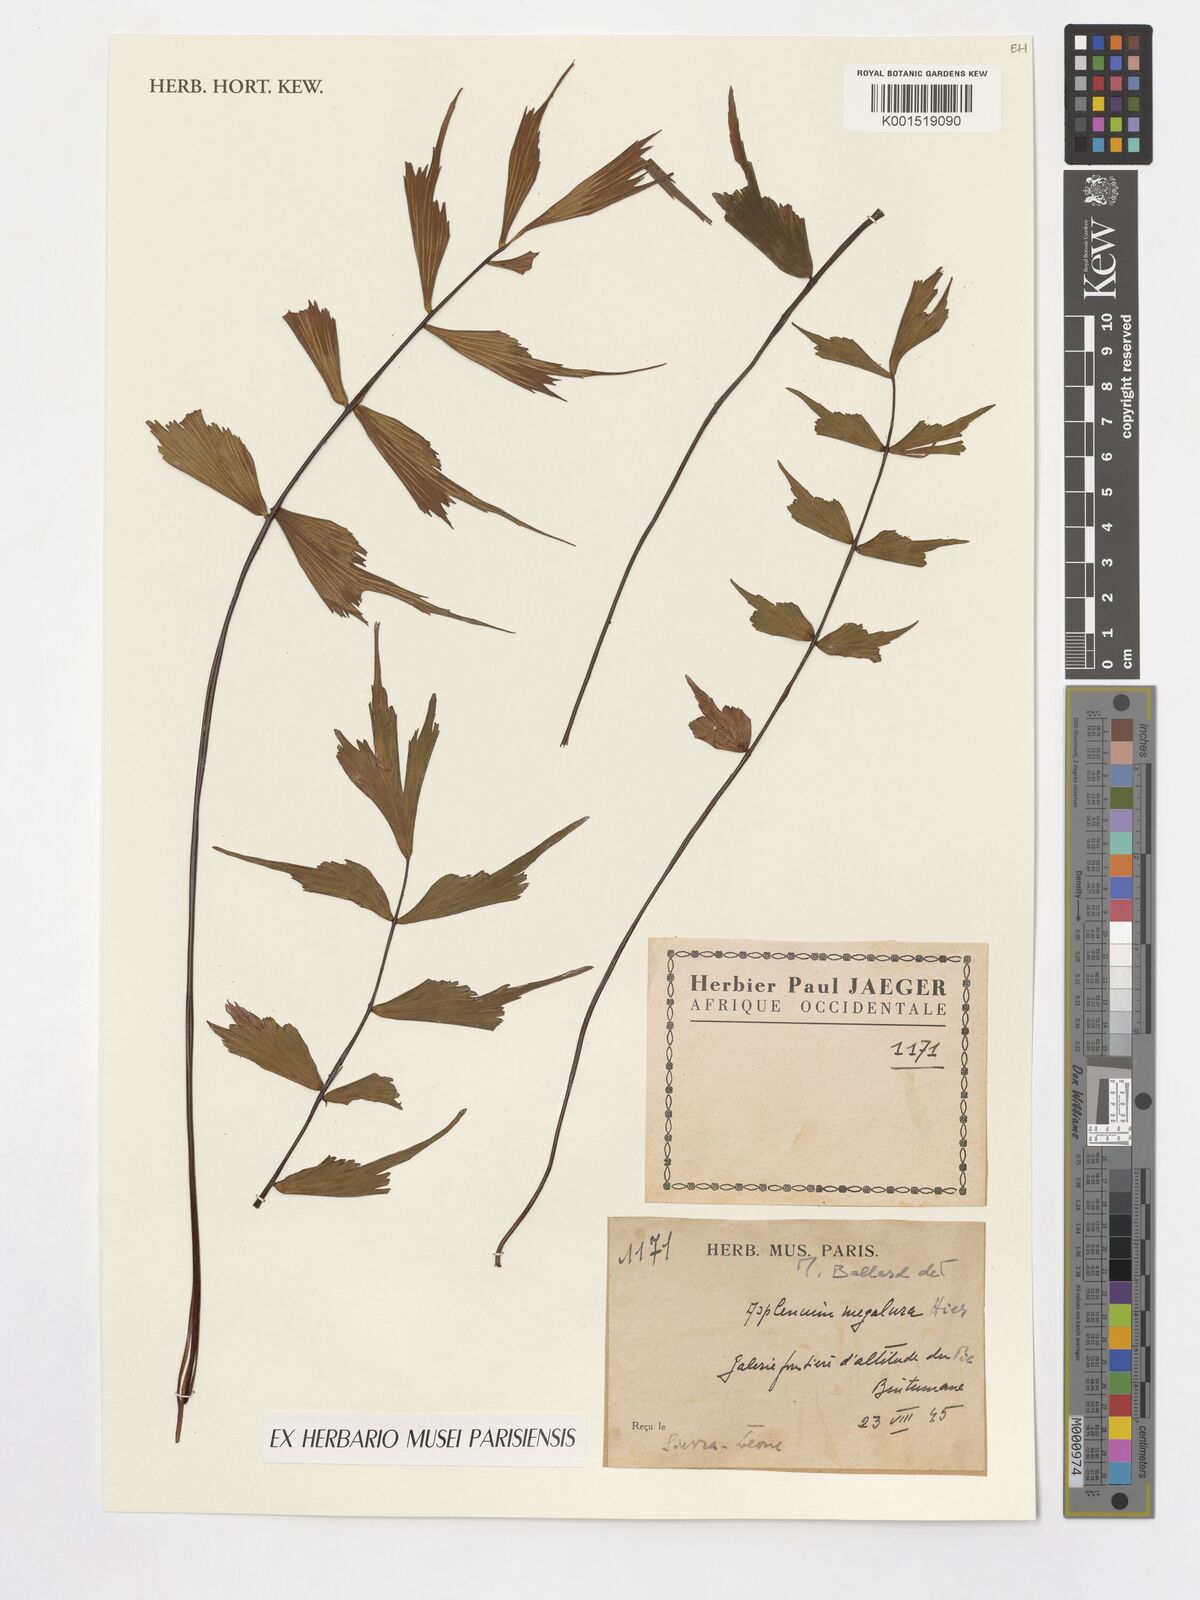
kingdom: Plantae
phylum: Tracheophyta
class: Polypodiopsida
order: Polypodiales
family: Aspleniaceae
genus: Asplenium
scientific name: Asplenium megalura
